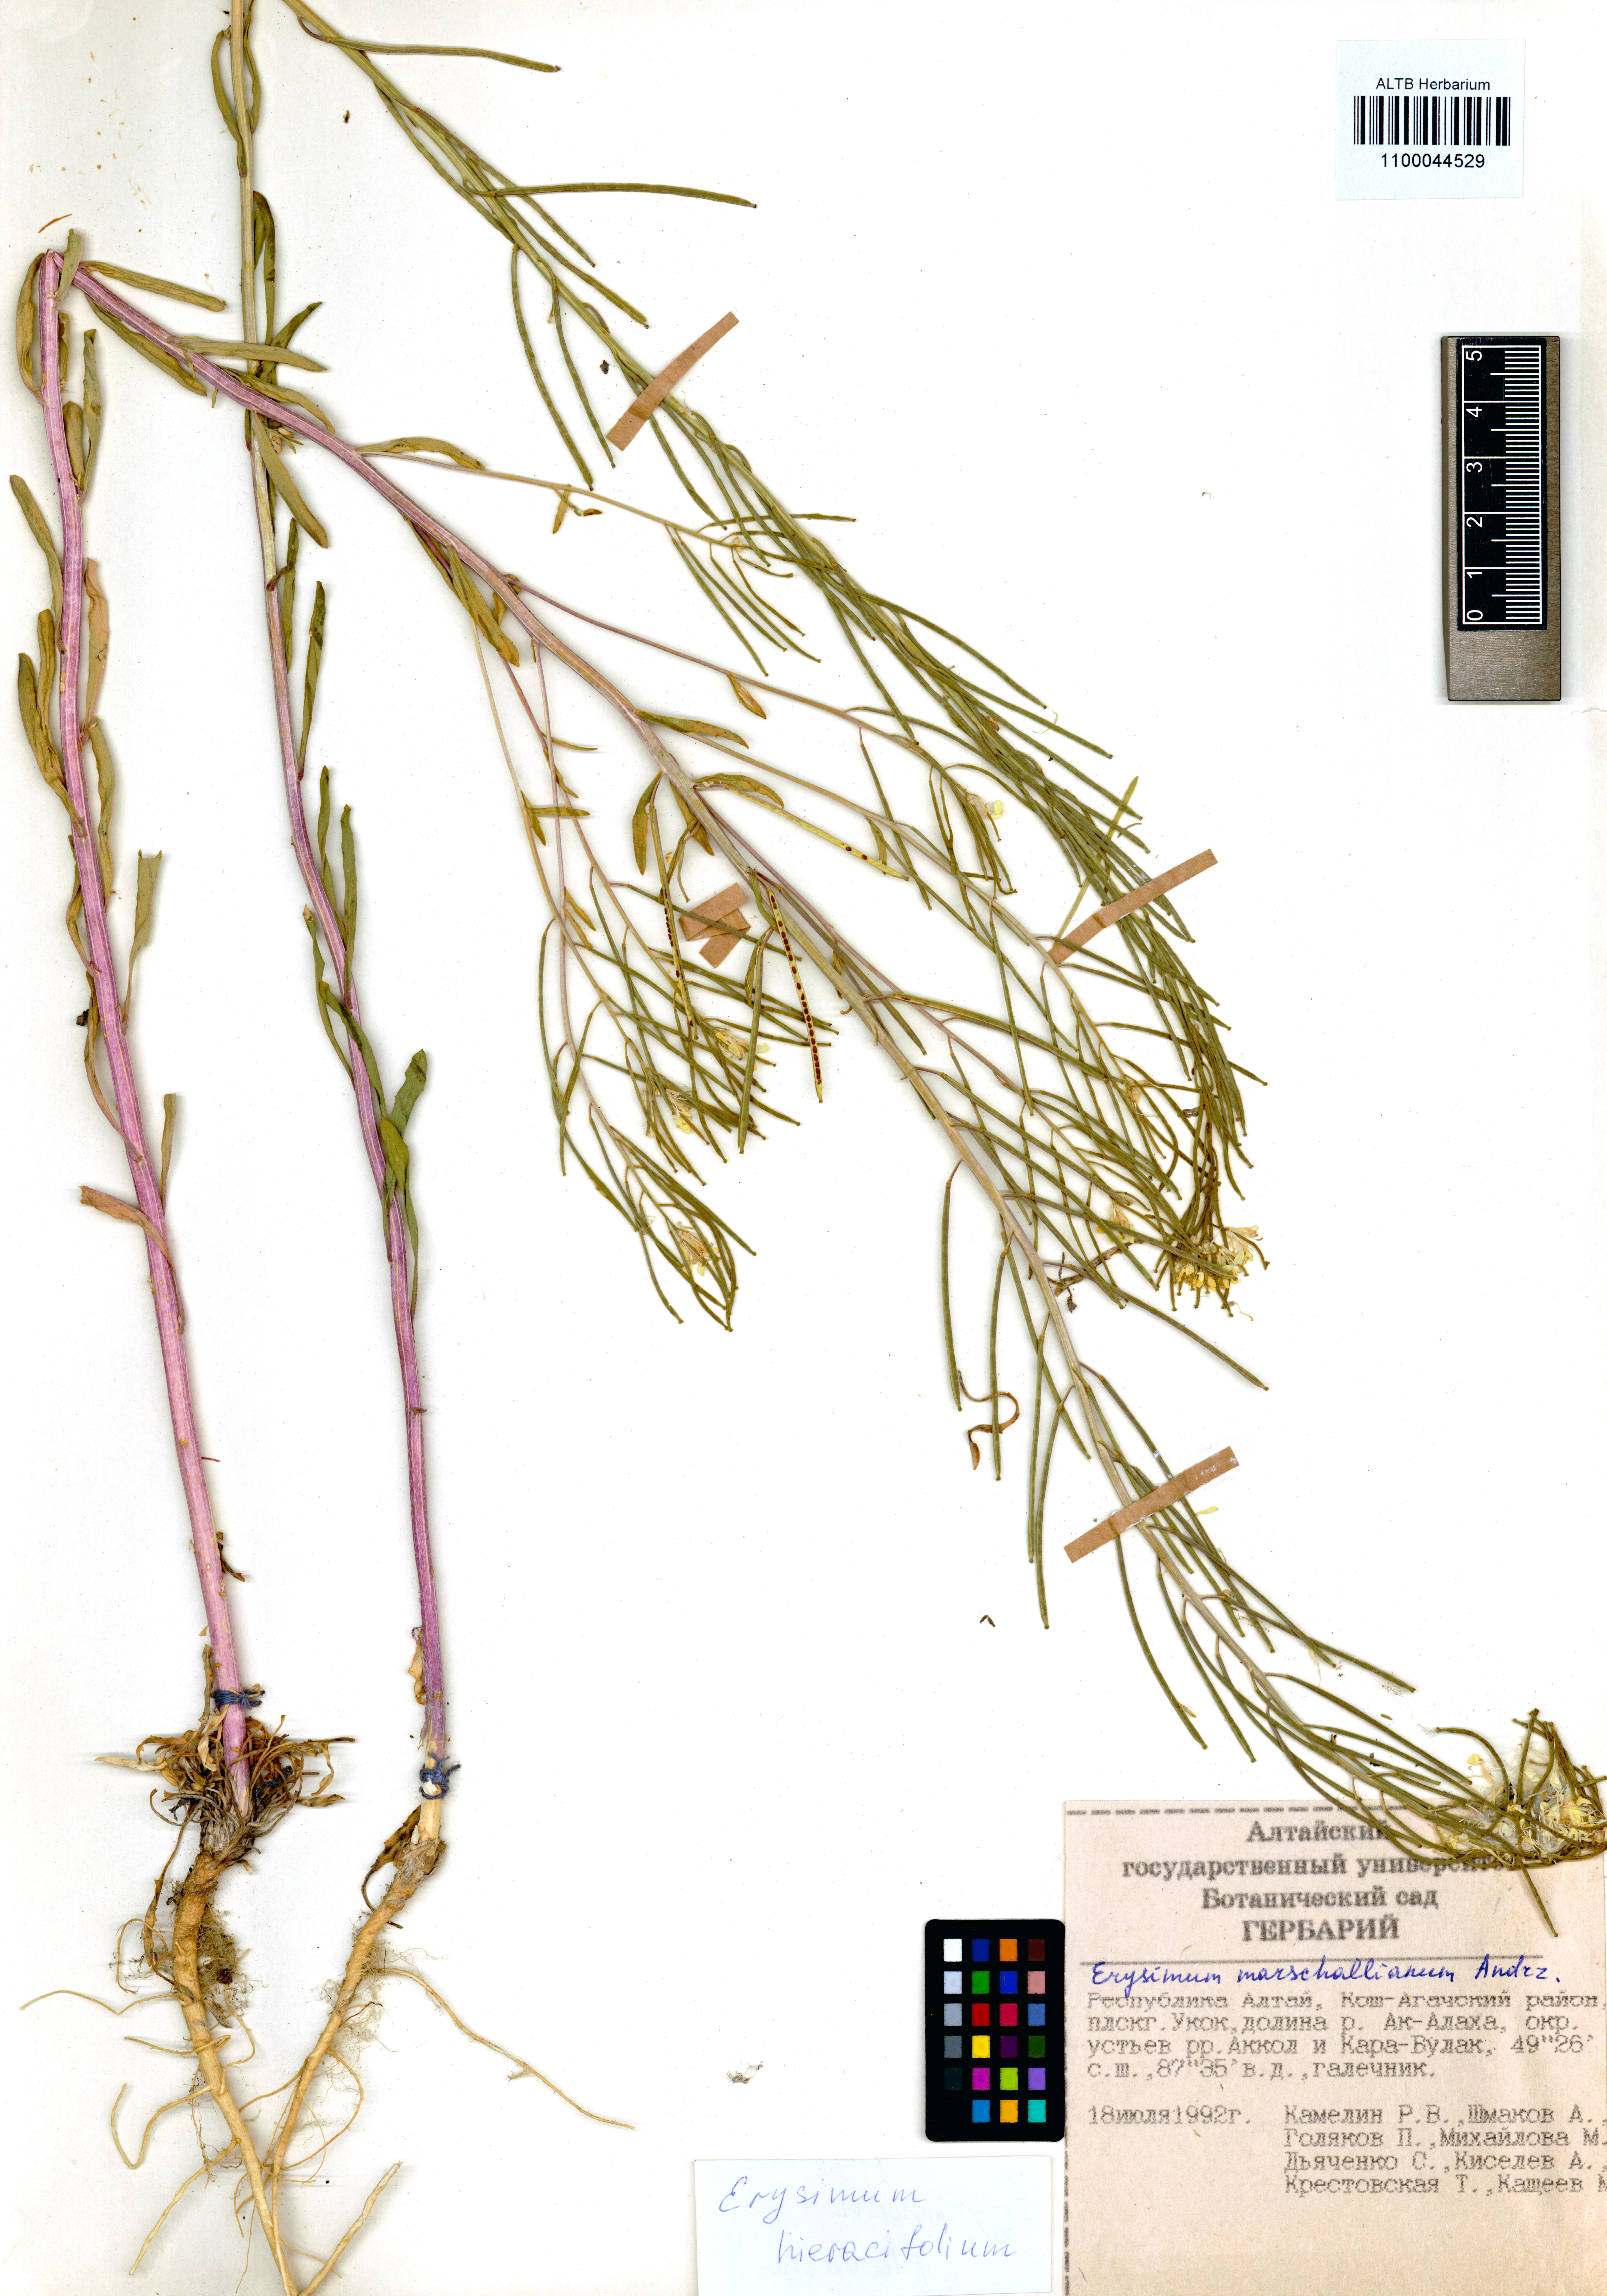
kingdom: Plantae
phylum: Tracheophyta
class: Magnoliopsida
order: Brassicales
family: Brassicaceae
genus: Erysimum
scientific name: Erysimum hieraciifolium
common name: European wallflower
